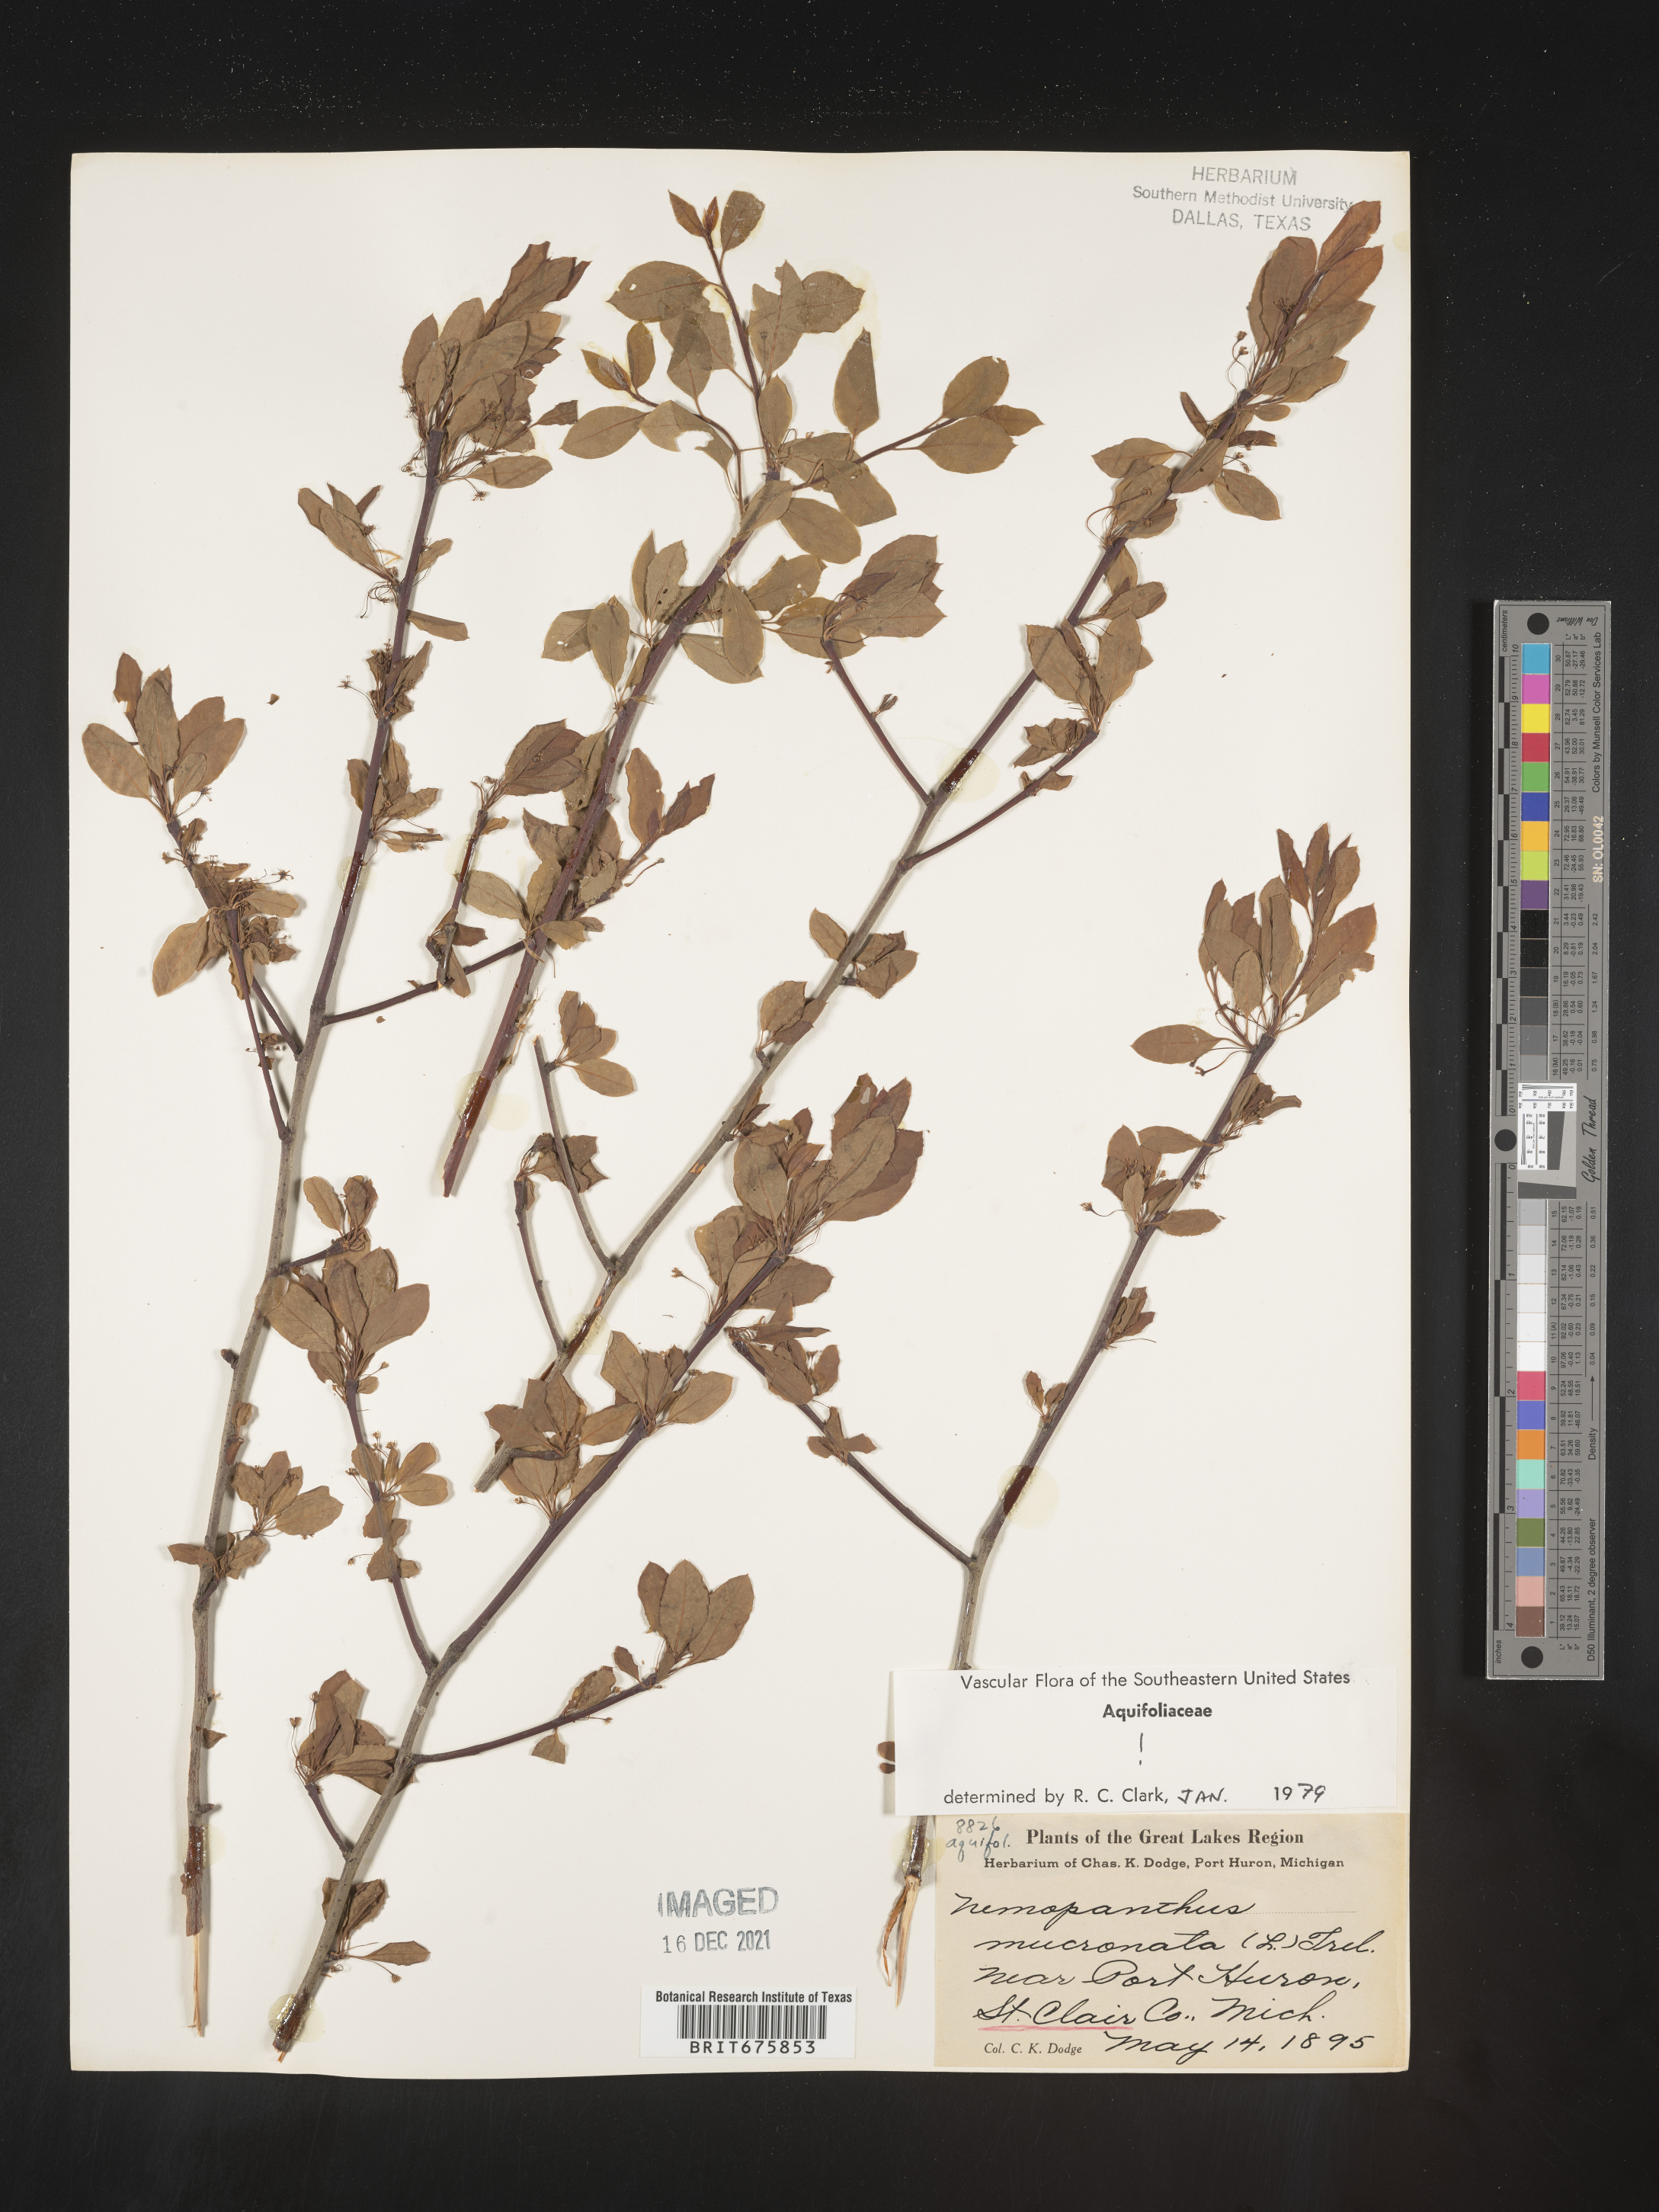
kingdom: Plantae
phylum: Tracheophyta
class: Magnoliopsida
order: Aquifoliales
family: Aquifoliaceae
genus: Ilex
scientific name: Ilex mucronata
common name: Catberry
